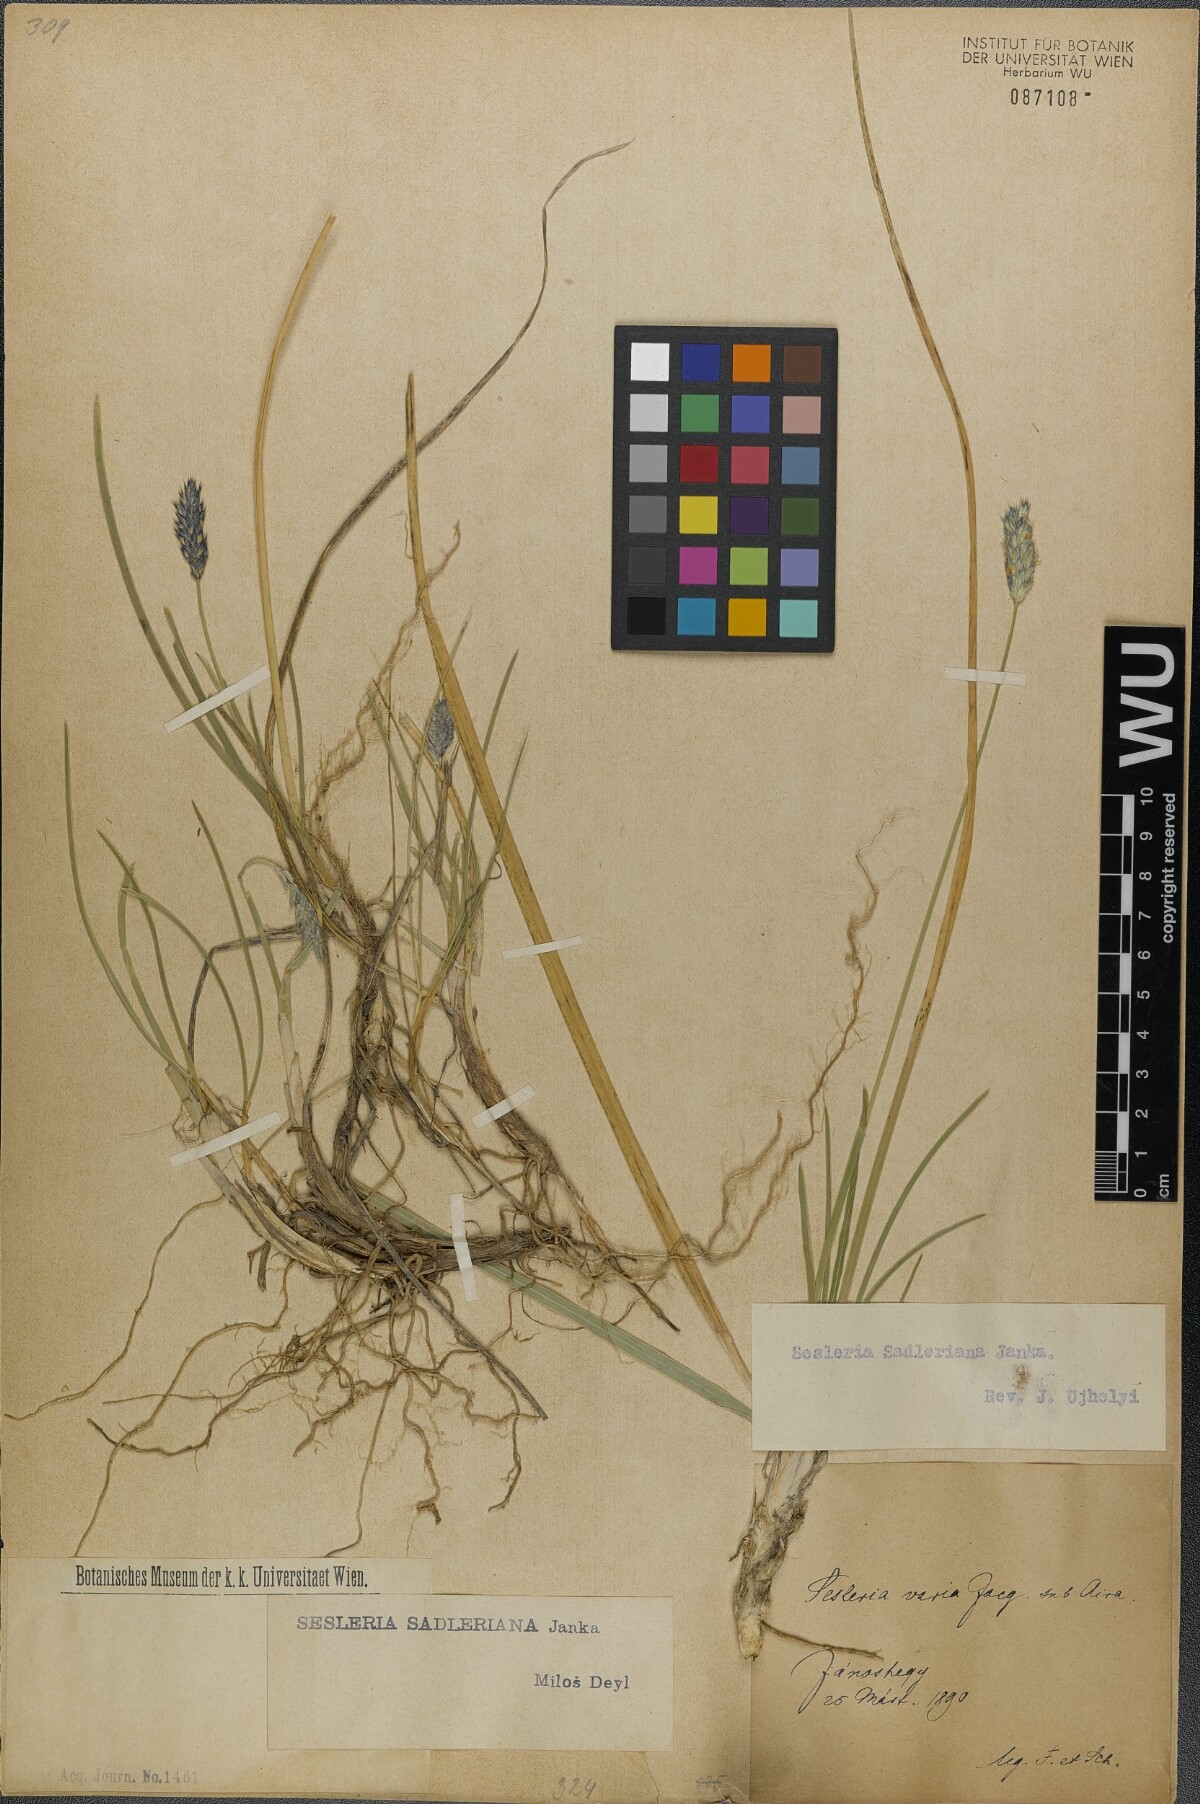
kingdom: Plantae
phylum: Tracheophyta
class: Liliopsida
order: Poales
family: Poaceae
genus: Sesleria
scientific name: Sesleria sadleriana
